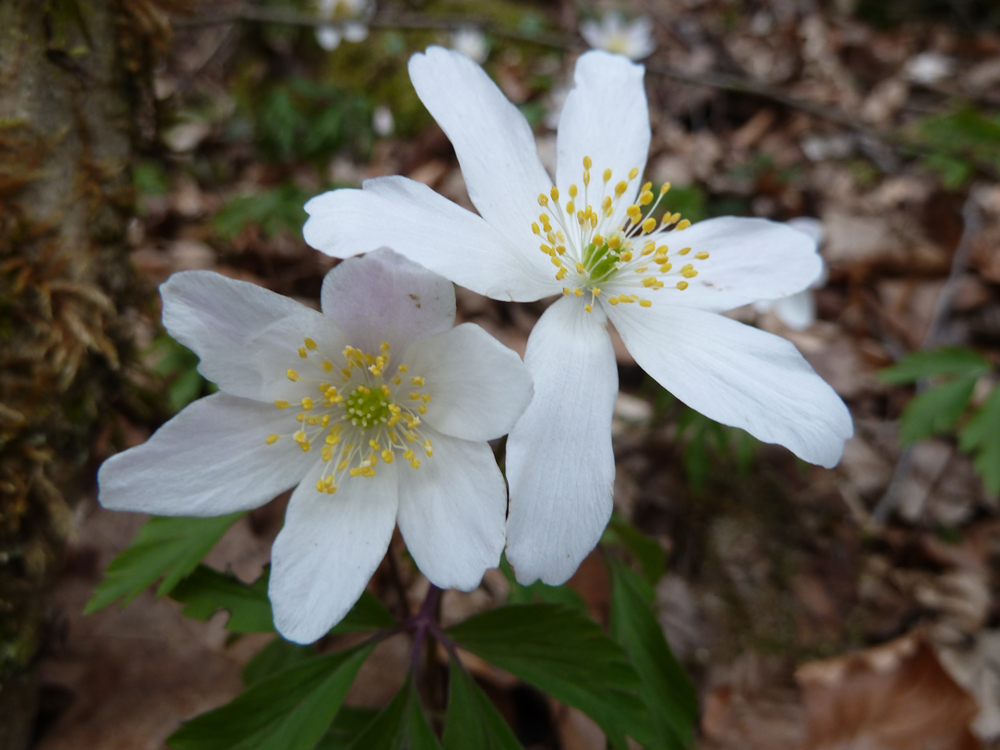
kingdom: Plantae
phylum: Tracheophyta
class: Magnoliopsida
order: Ranunculales
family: Ranunculaceae
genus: Anemone
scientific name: Anemone nemorosa
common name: Wood anemone
